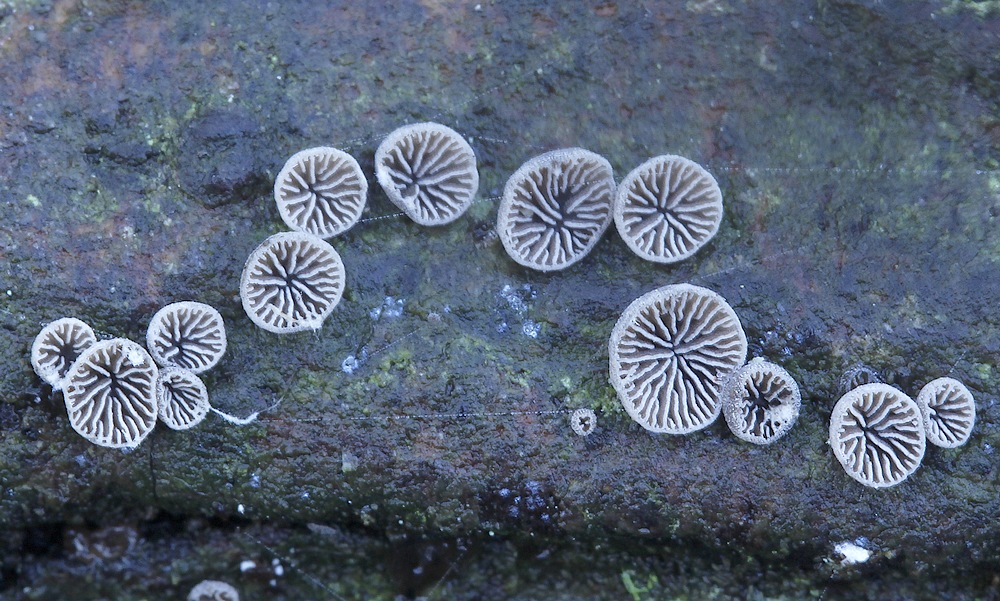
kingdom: Fungi
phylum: Basidiomycota
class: Agaricomycetes
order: Agaricales
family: Pleurotaceae
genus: Resupinatus
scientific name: Resupinatus trichotis
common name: mørkfiltet barkhat
